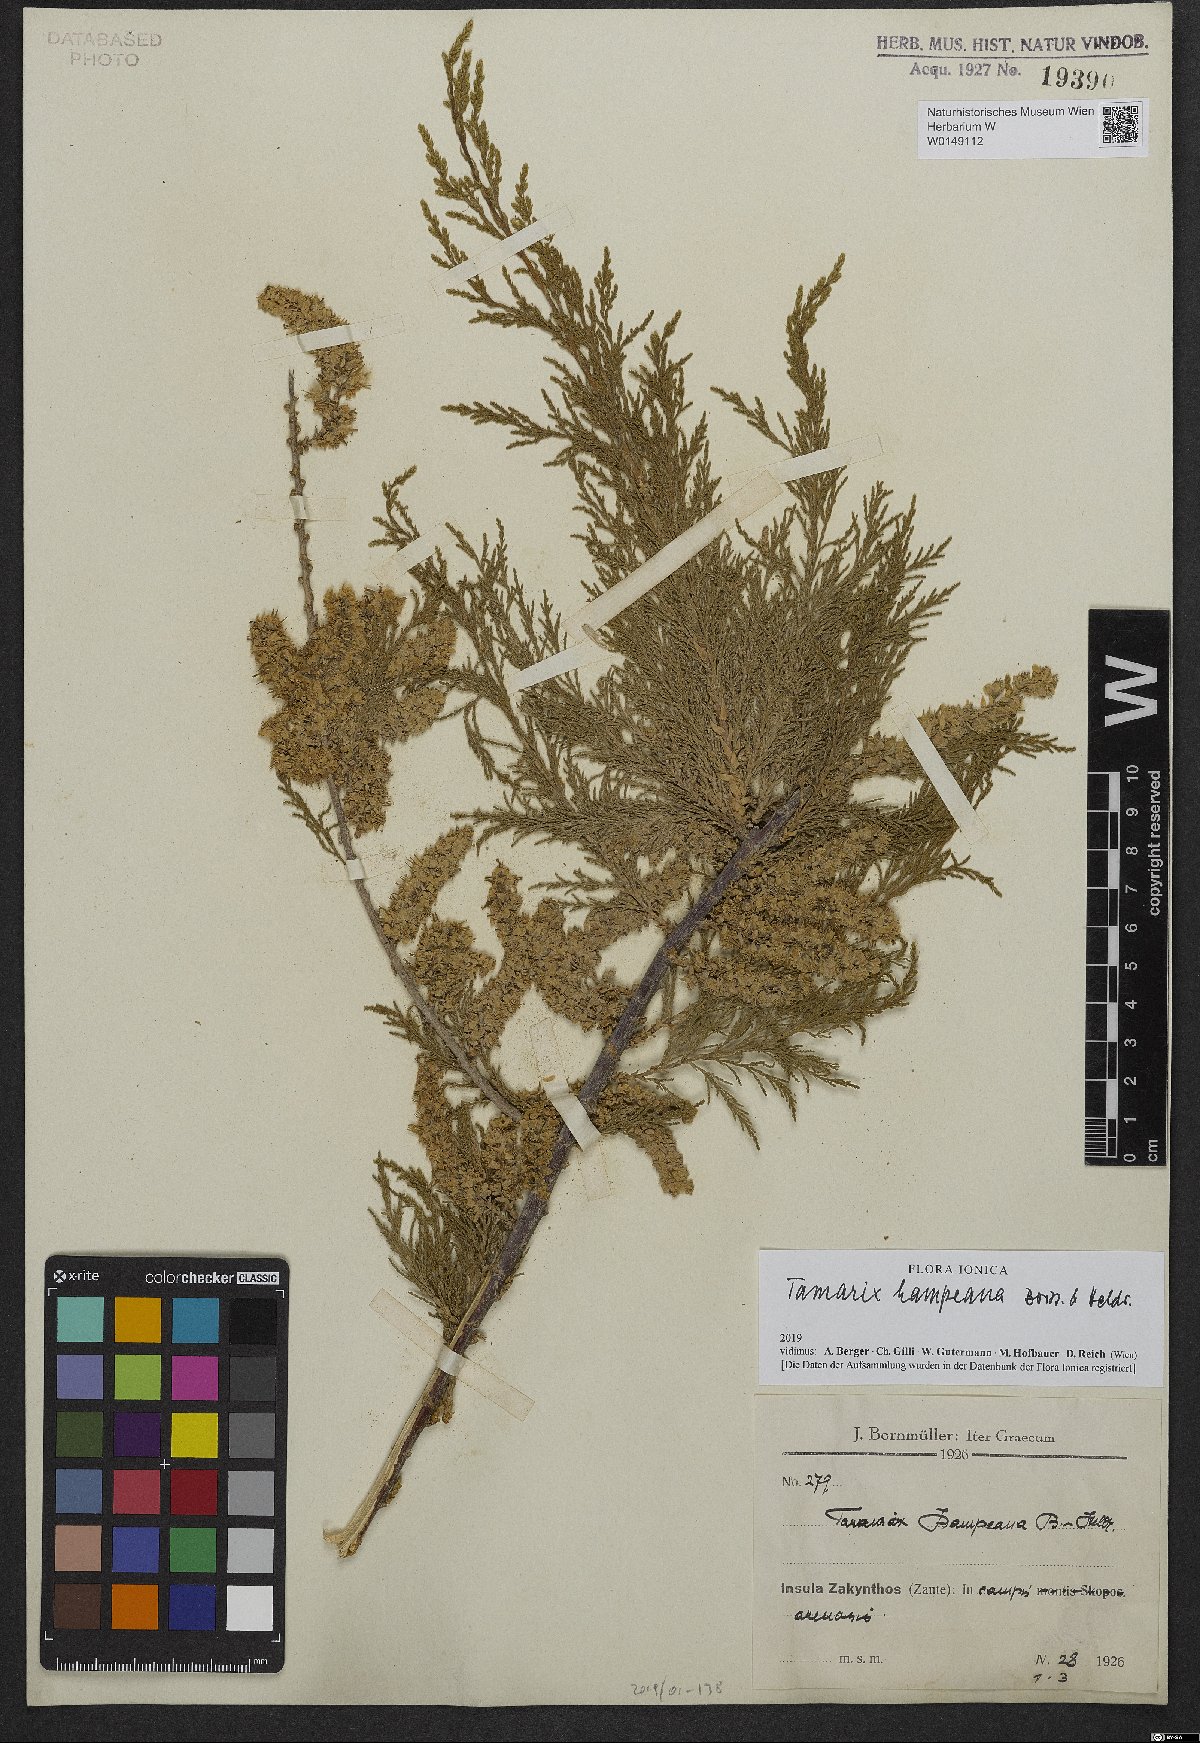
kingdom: Plantae
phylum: Tracheophyta
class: Magnoliopsida
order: Caryophyllales
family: Tamaricaceae
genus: Tamarix
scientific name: Tamarix hampeana
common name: Hampe’s tamarisk
